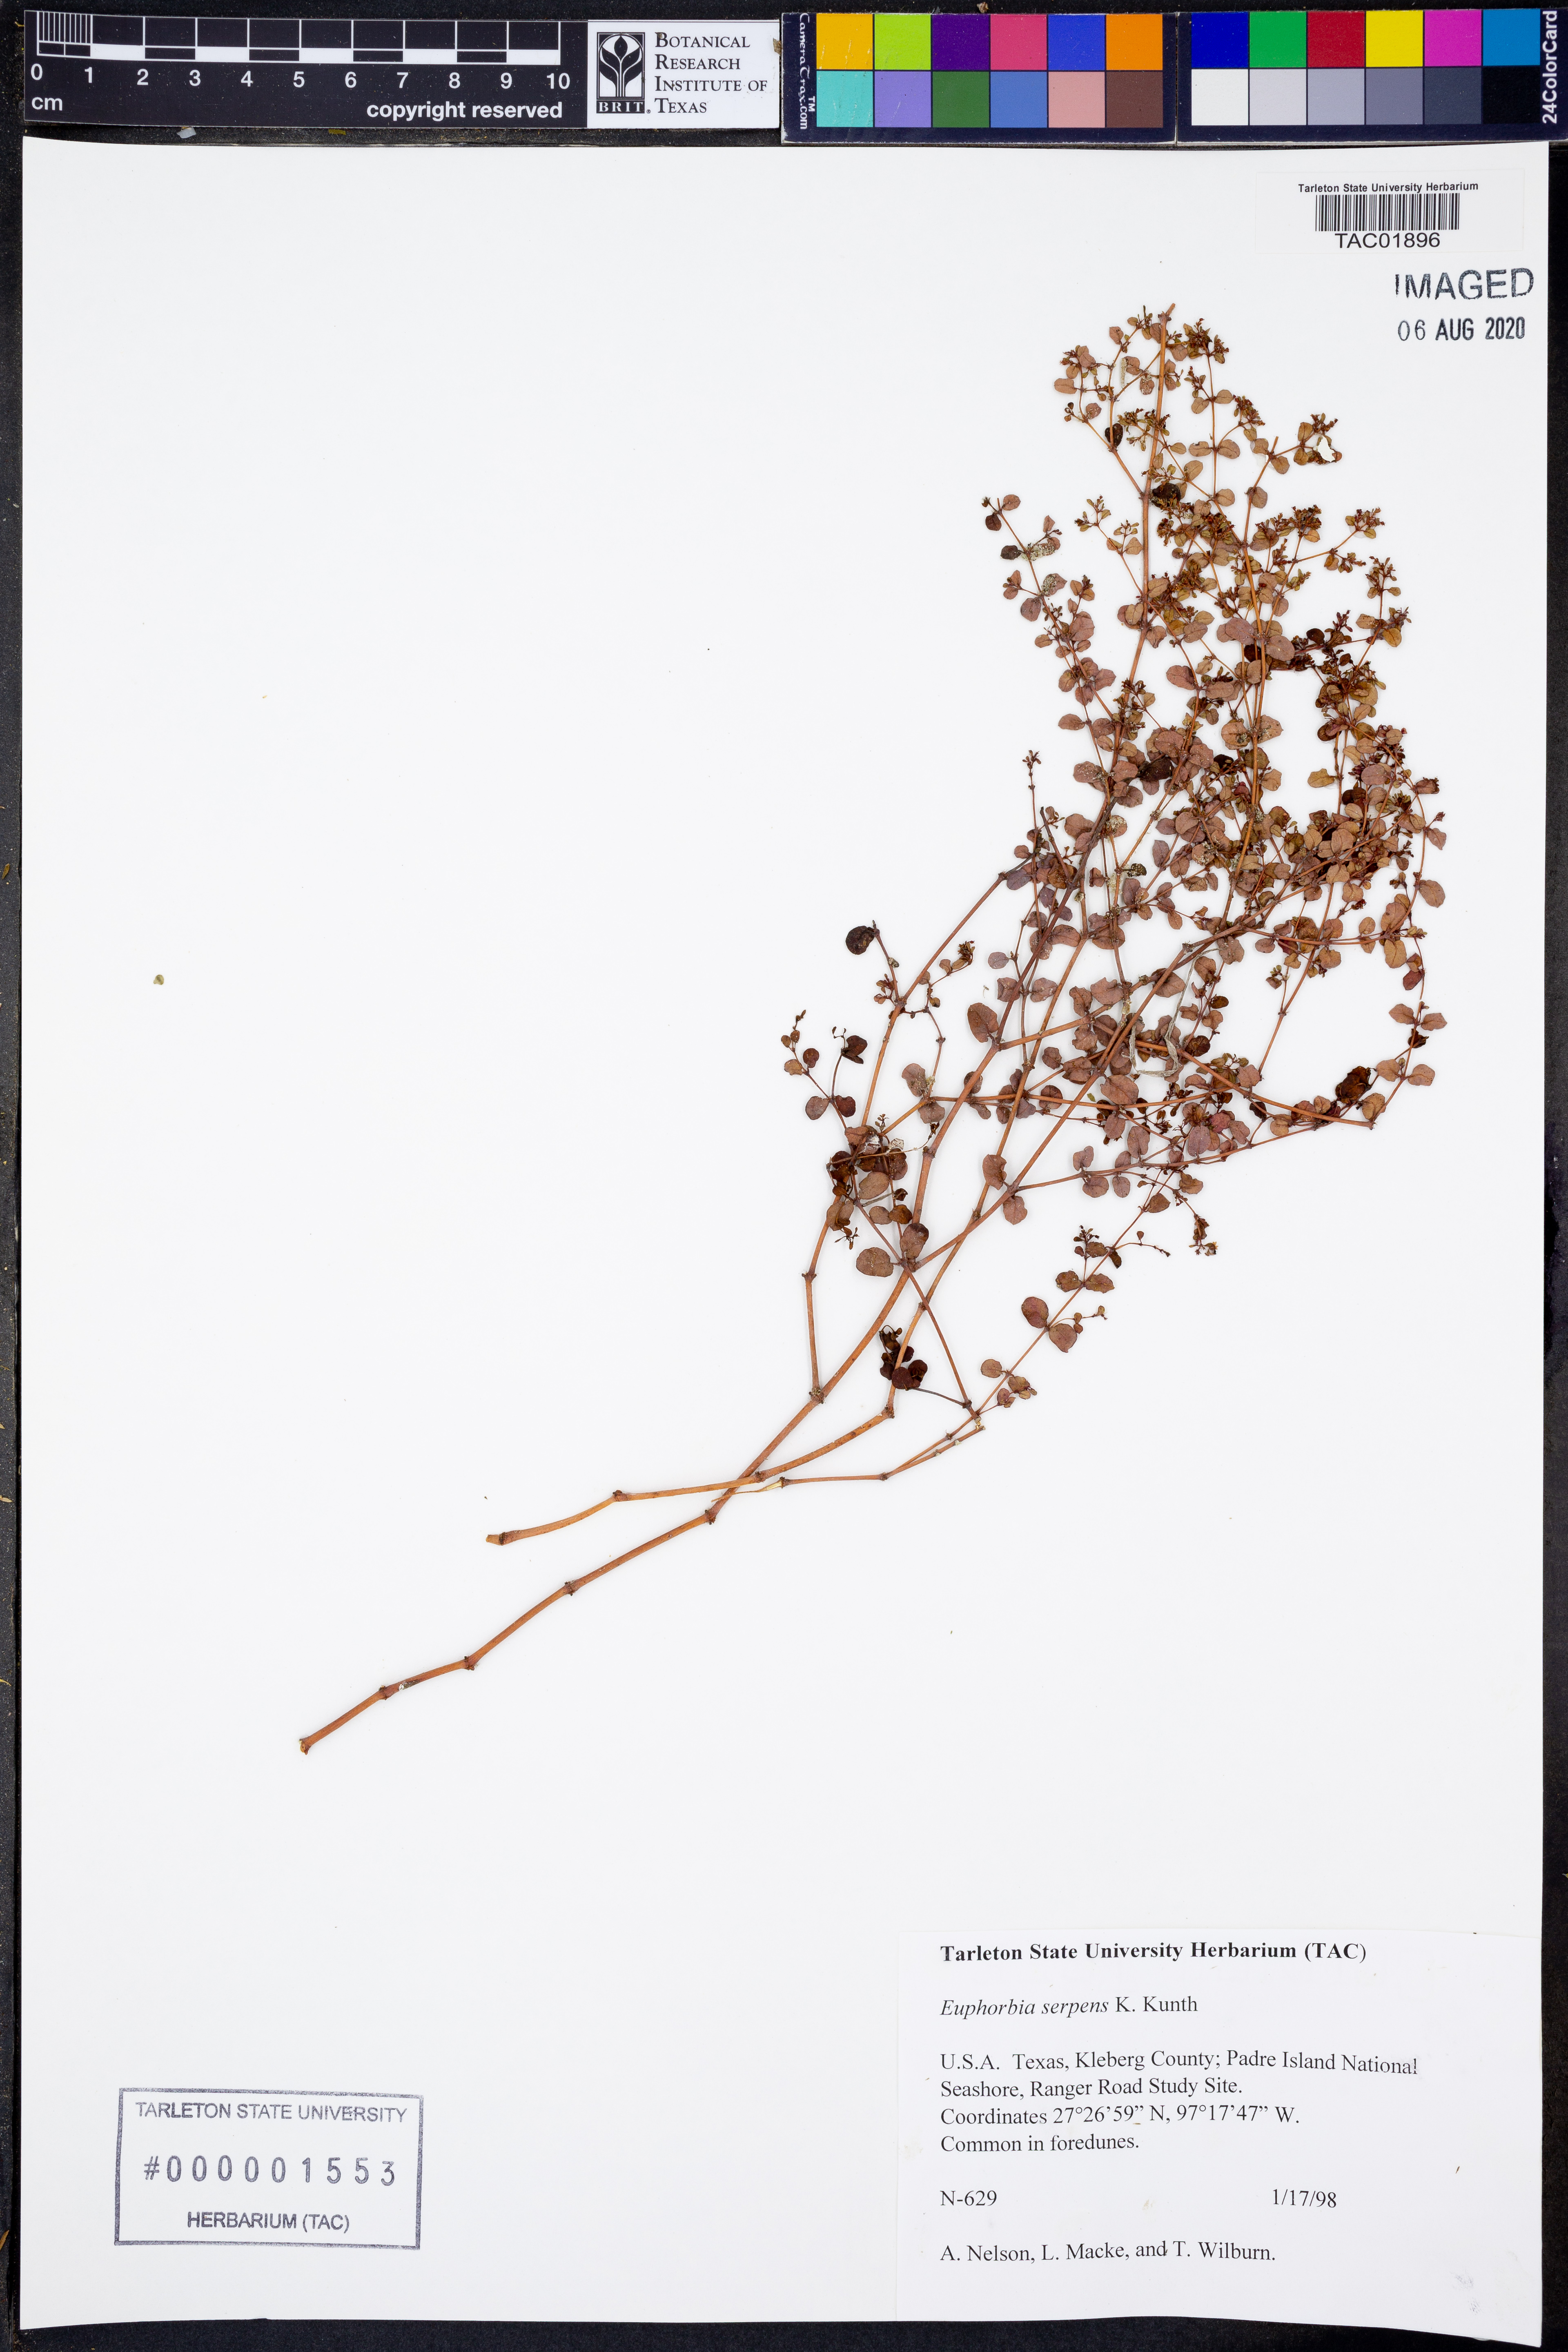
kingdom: Plantae
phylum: Tracheophyta
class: Magnoliopsida
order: Malpighiales
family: Euphorbiaceae
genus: Euphorbia
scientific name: Euphorbia serpens
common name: Matted sandmat
